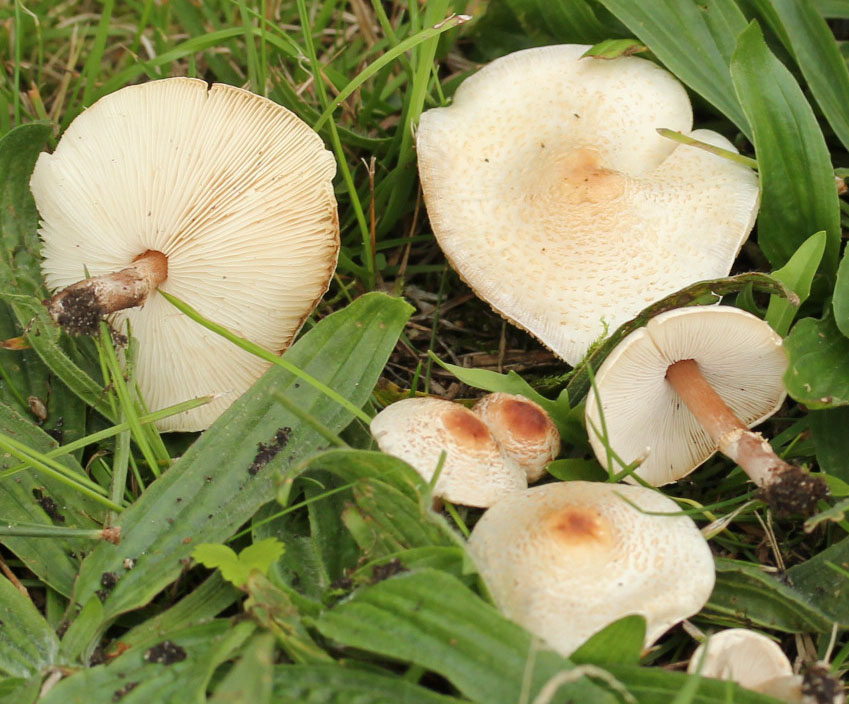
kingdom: Fungi
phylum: Basidiomycota
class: Agaricomycetes
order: Agaricales
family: Agaricaceae
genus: Lepiota
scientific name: Lepiota cristata
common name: stinkende parasolhat
